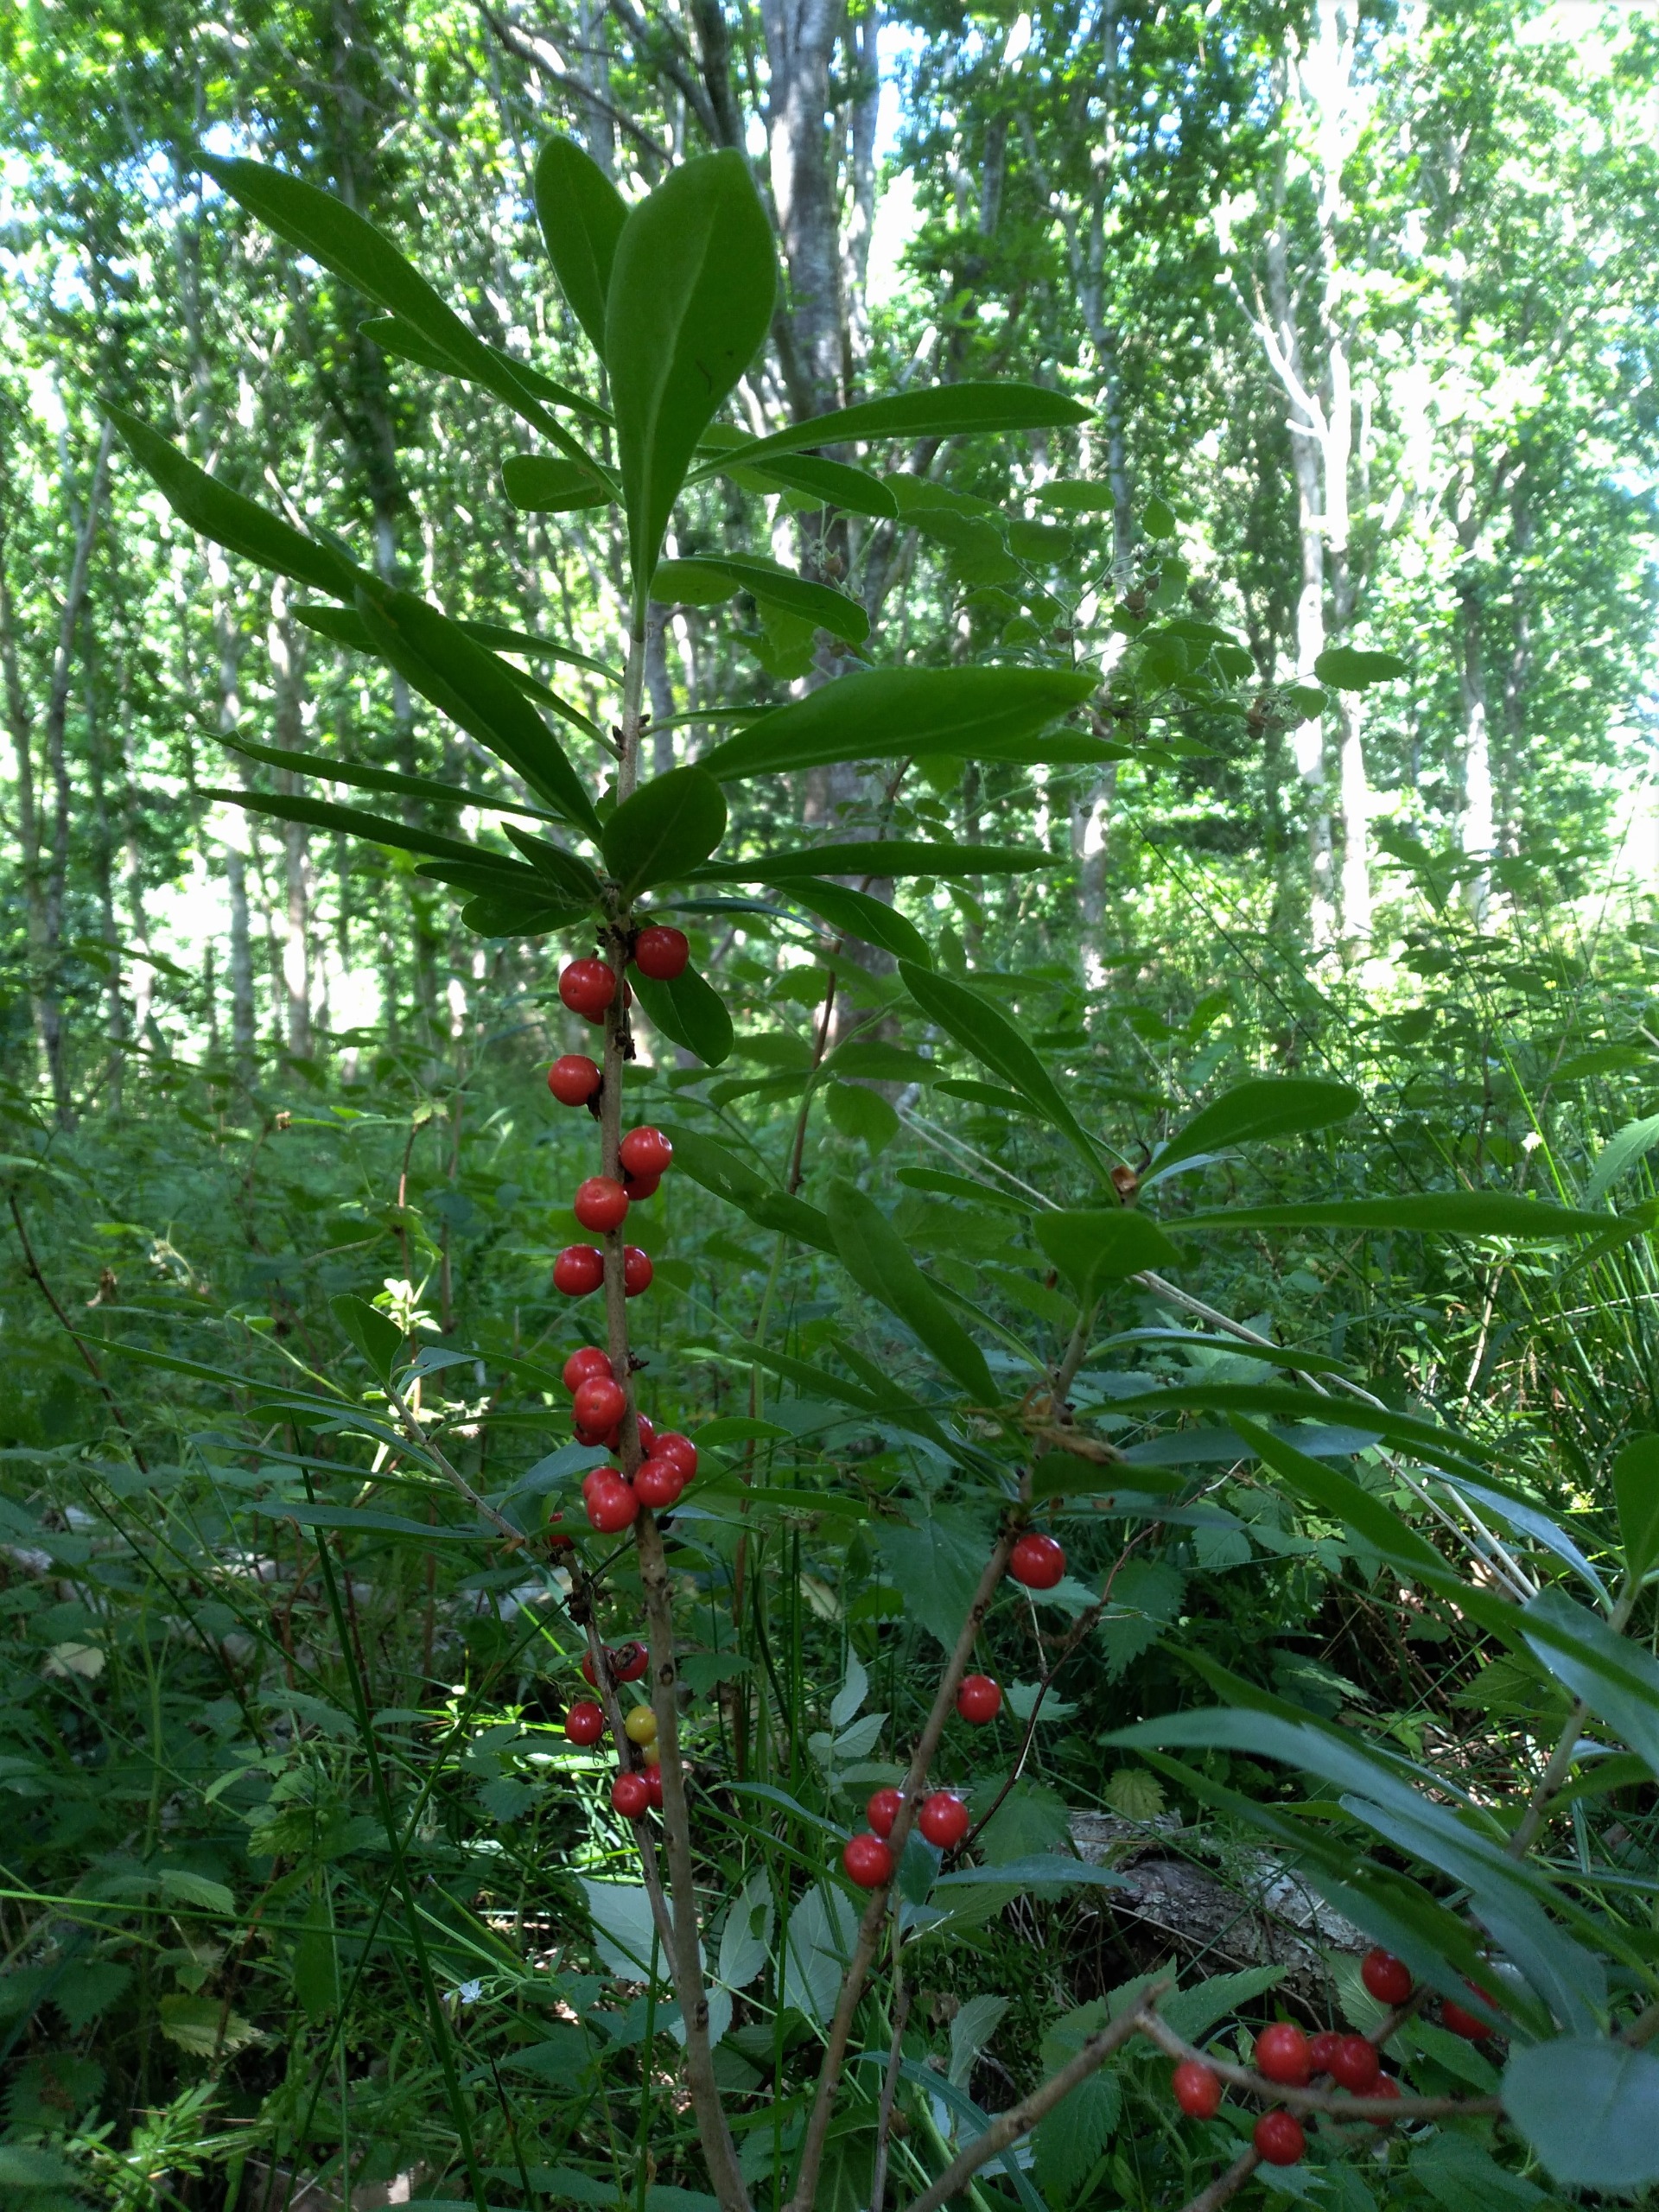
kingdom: Plantae
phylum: Tracheophyta
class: Magnoliopsida
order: Malvales
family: Thymelaeaceae
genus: Daphne
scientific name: Daphne mezereum
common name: Pebertræ
